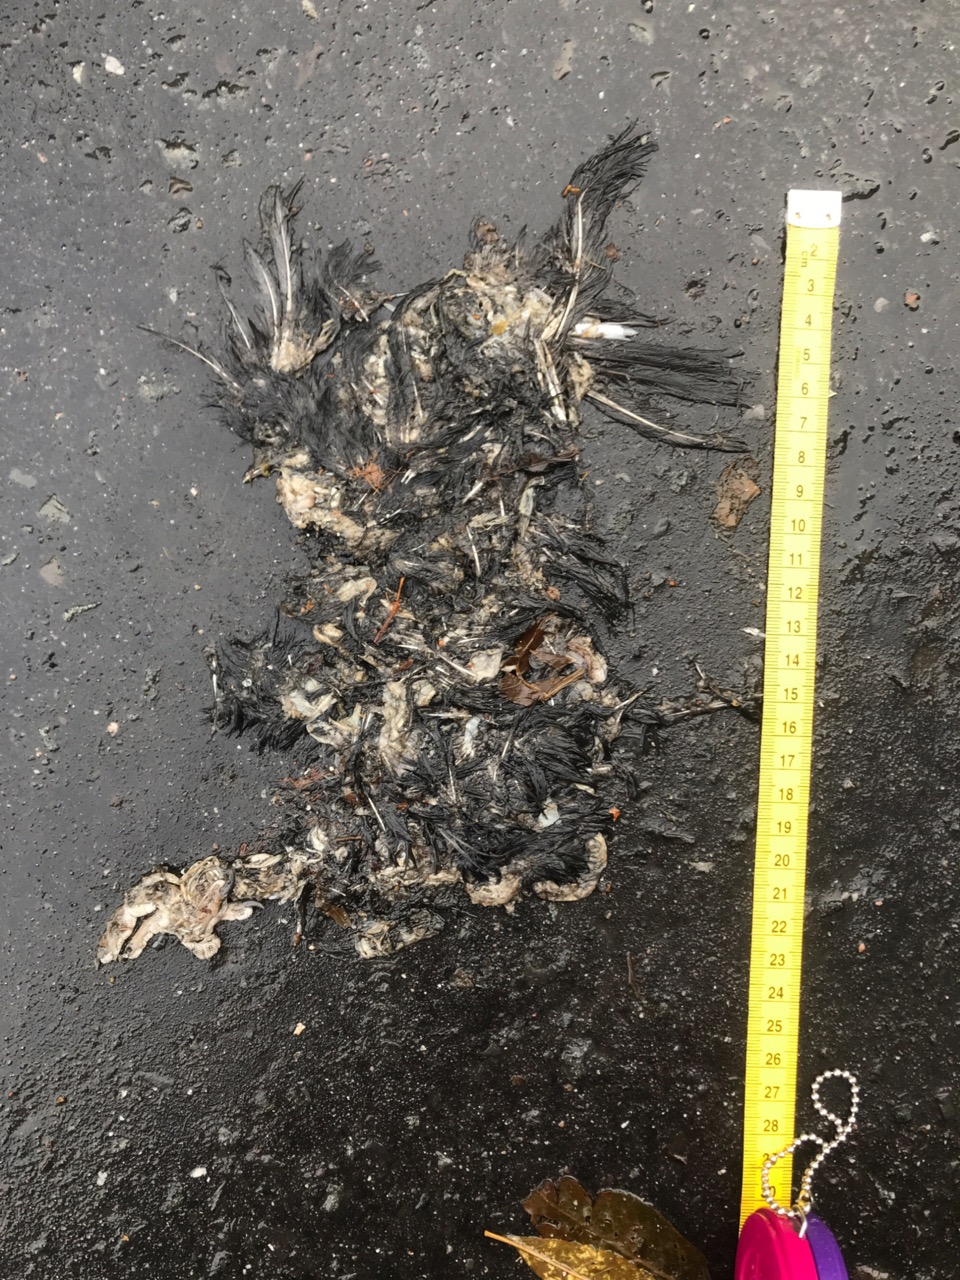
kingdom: Animalia
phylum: Chordata
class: Aves
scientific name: Aves
